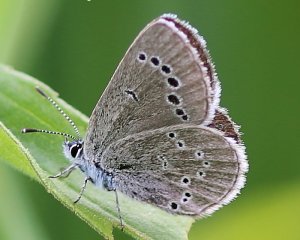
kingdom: Animalia
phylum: Arthropoda
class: Insecta
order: Lepidoptera
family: Lycaenidae
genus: Glaucopsyche
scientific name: Glaucopsyche lygdamus
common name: Silvery Blue
